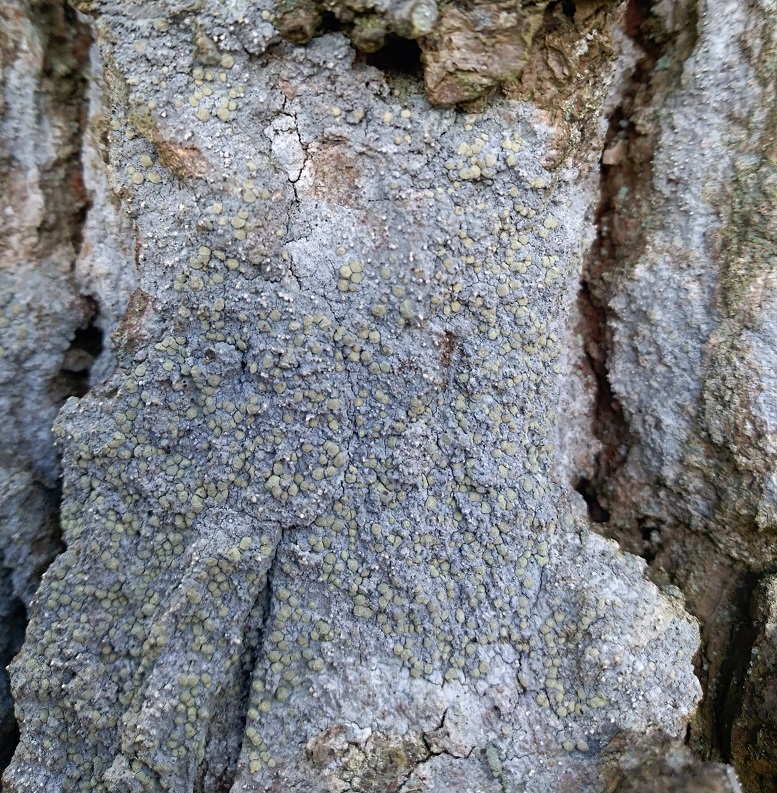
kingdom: Fungi
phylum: Ascomycota
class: Arthoniomycetes
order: Arthoniales
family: Roccellaceae
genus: Lecanactis
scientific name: Lecanactis abietina
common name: grå dugskivelav
